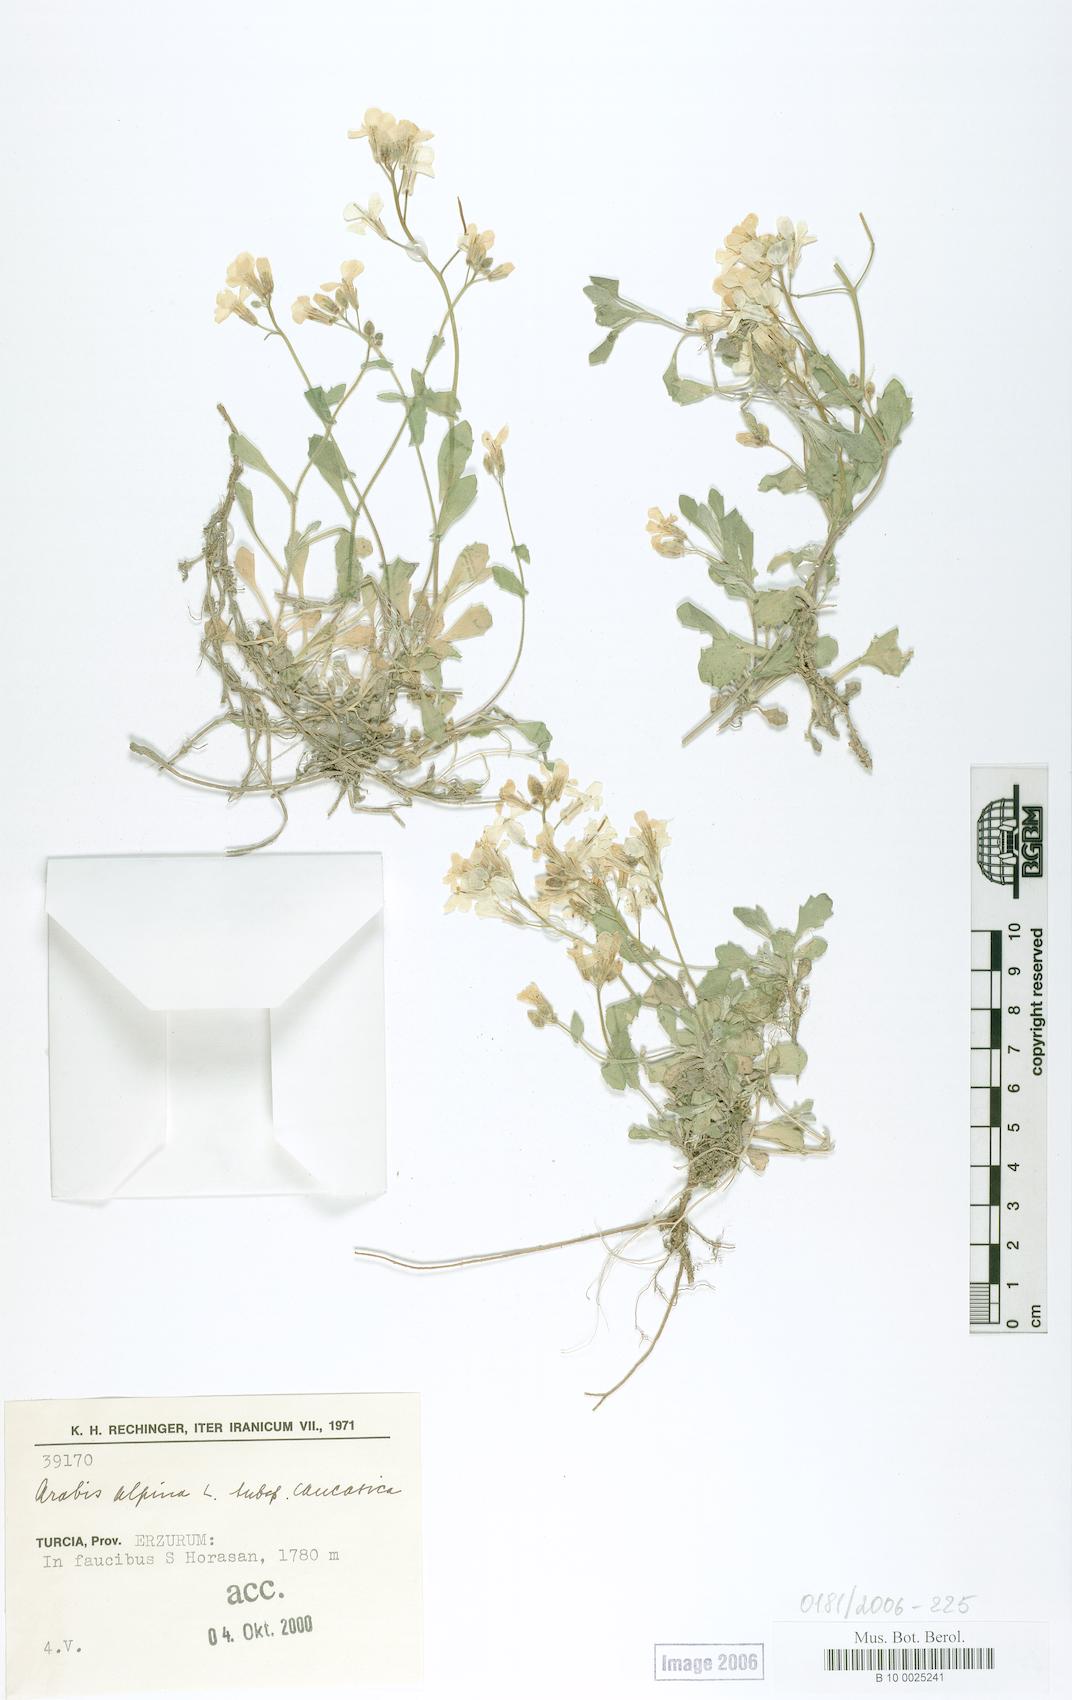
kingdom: Plantae
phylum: Tracheophyta
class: Magnoliopsida
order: Brassicales
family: Brassicaceae
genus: Arabis
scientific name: Arabis caucasica
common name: Gray rockcress
